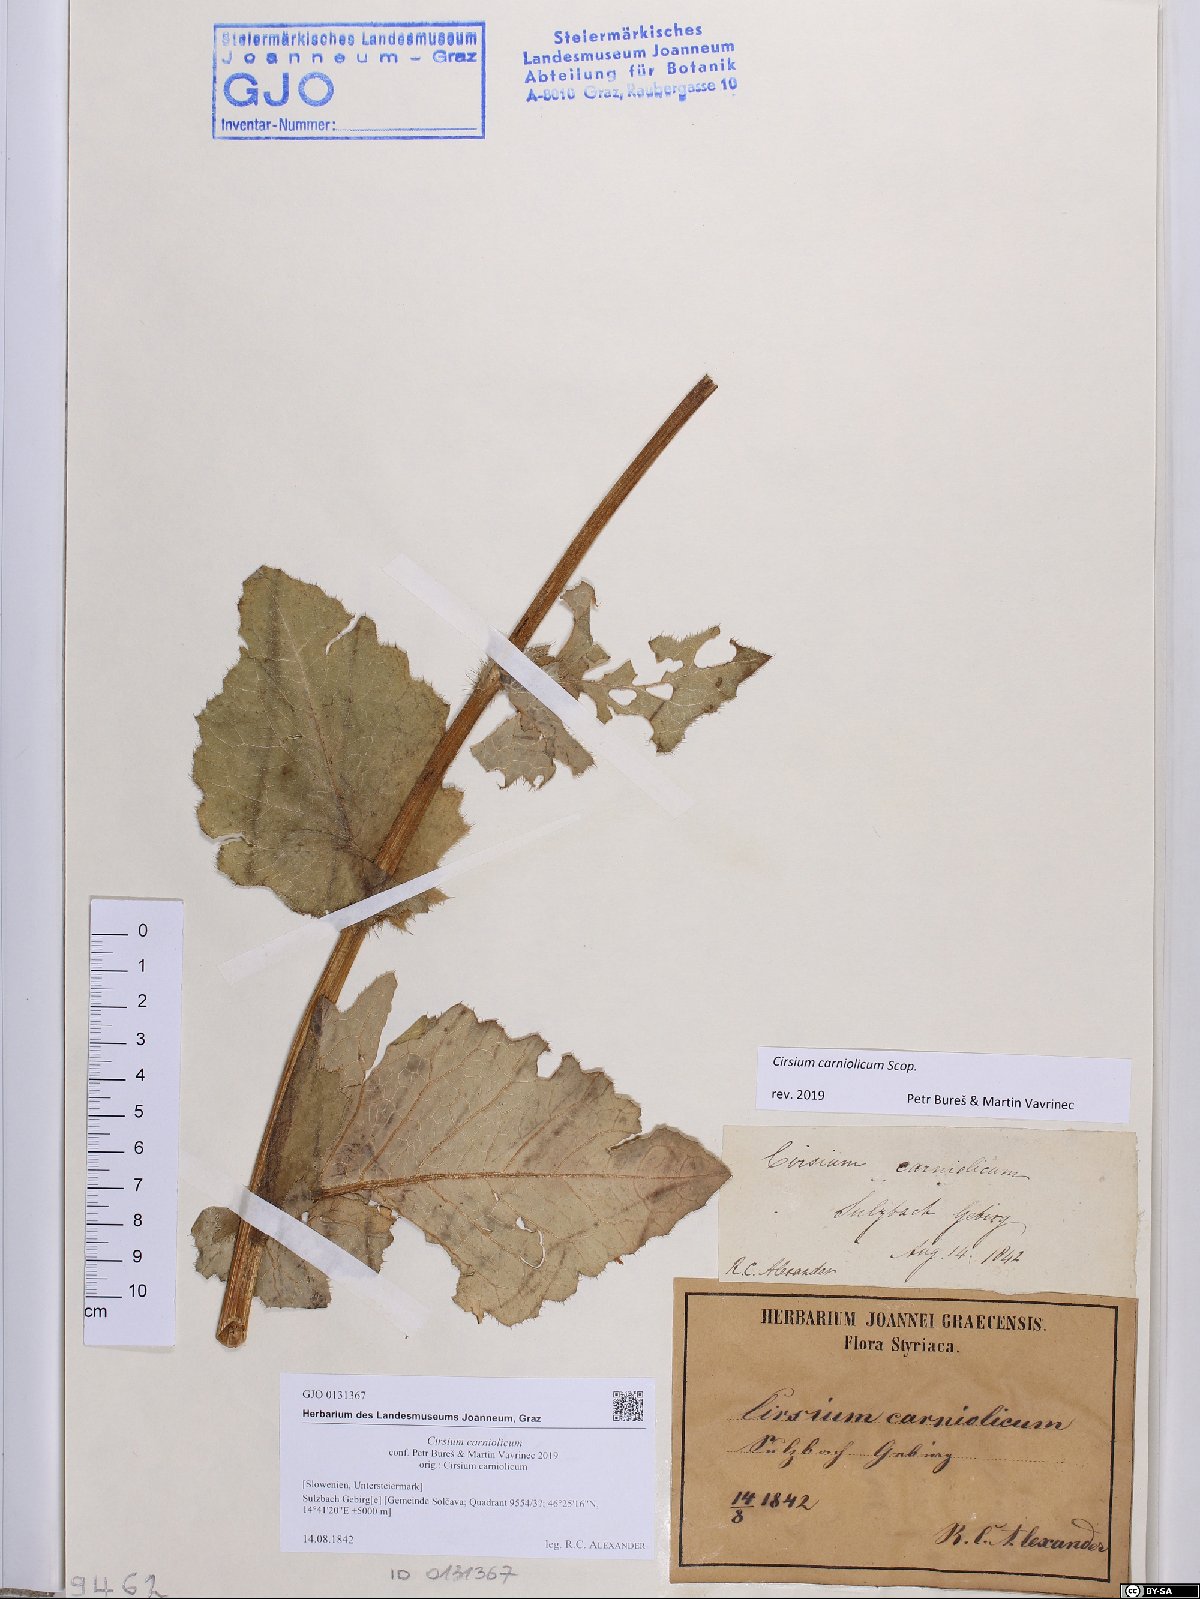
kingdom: Plantae
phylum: Tracheophyta
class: Magnoliopsida
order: Asterales
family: Asteraceae
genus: Cirsium
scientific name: Cirsium carniolicum
